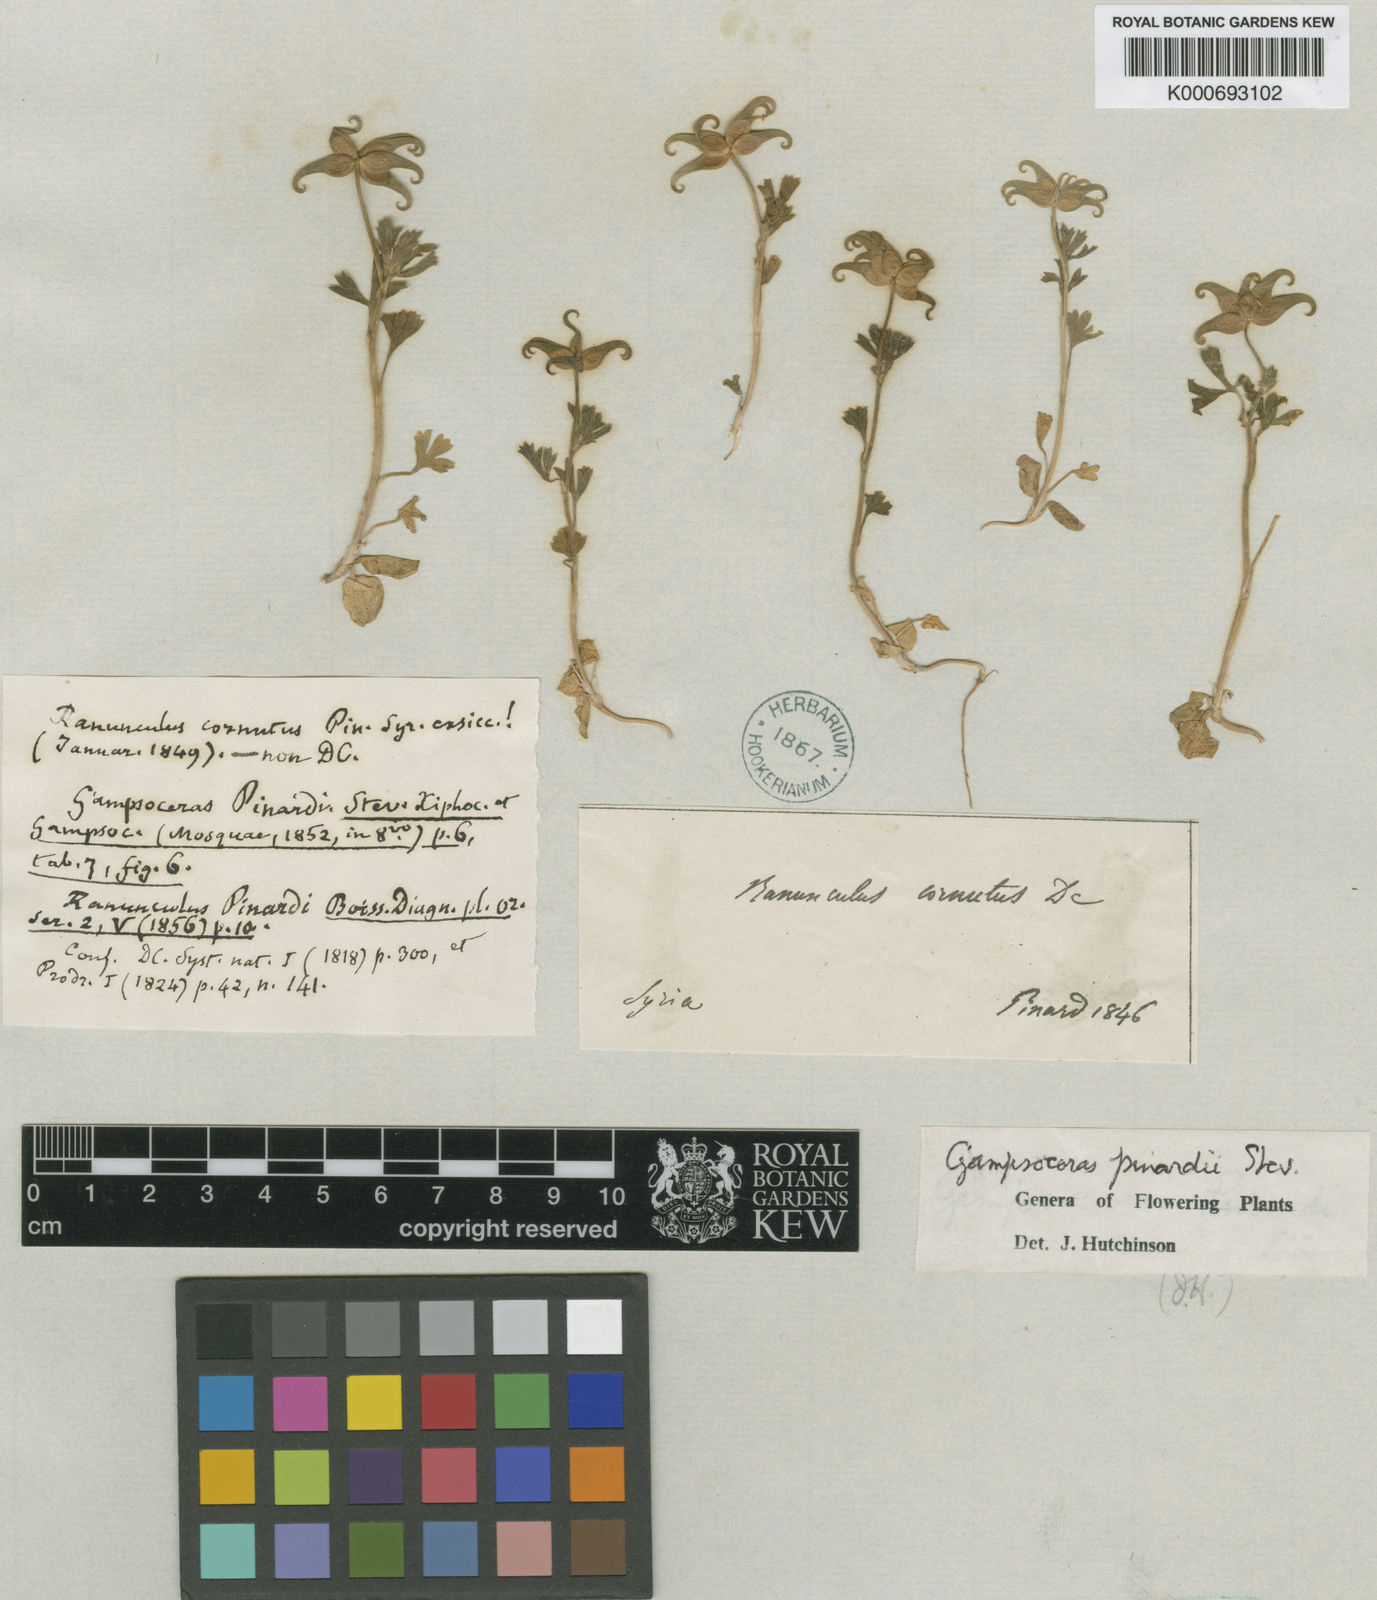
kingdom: Plantae
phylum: Tracheophyta
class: Magnoliopsida
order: Ranunculales
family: Ranunculaceae
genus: Ranunculus
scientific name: Ranunculus pinardii
